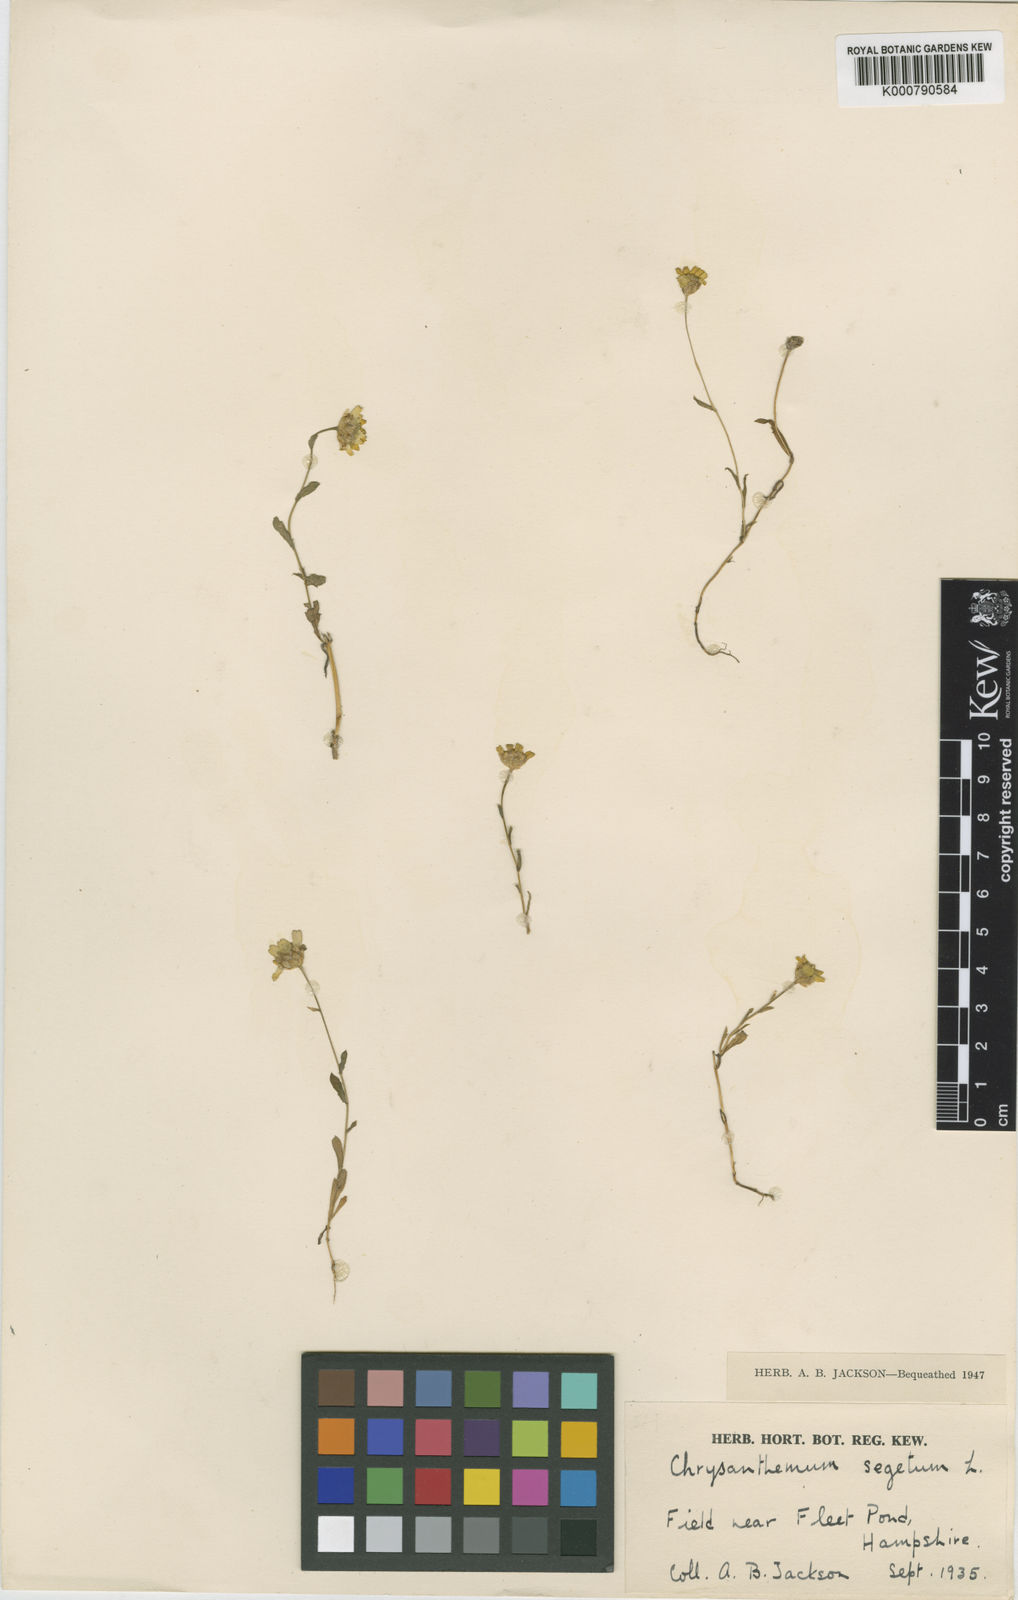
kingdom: Plantae
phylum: Tracheophyta
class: Magnoliopsida
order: Asterales
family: Asteraceae
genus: Glebionis
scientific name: Glebionis
